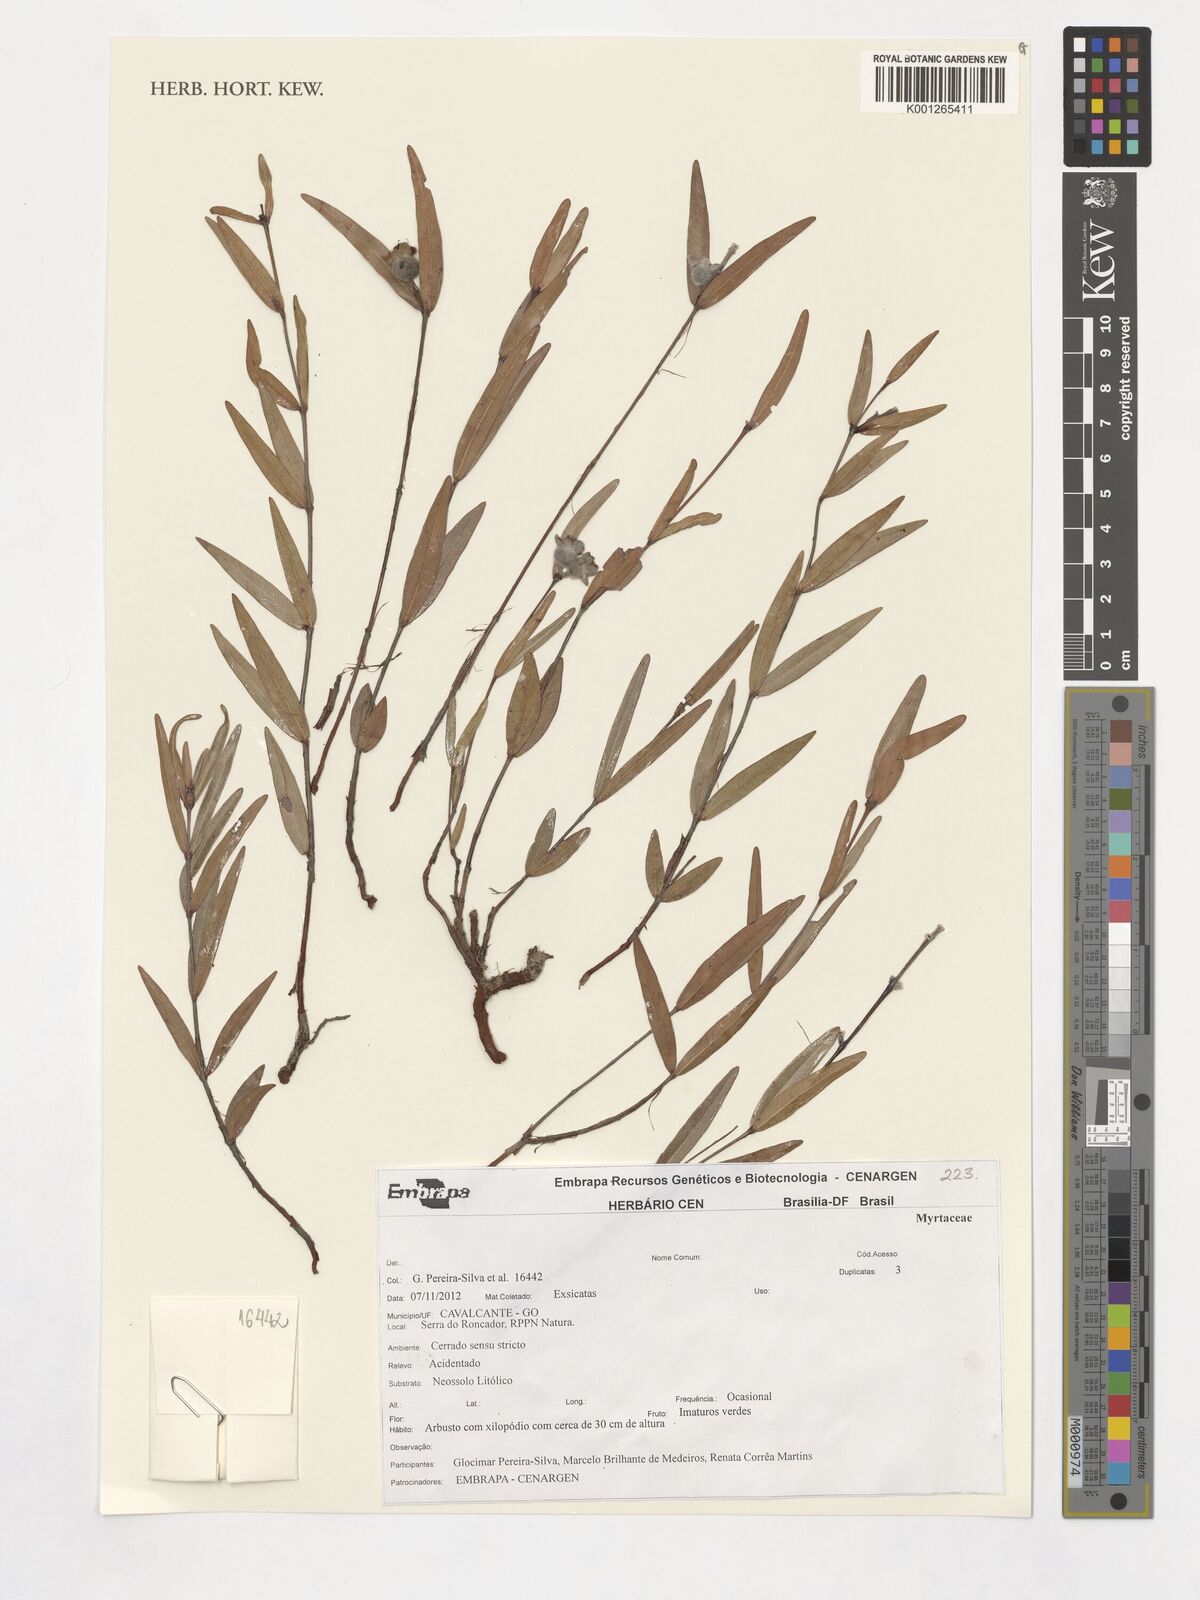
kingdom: Plantae
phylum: Tracheophyta
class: Magnoliopsida
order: Myrtales
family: Myrtaceae
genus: Myrcia
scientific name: Myrcia goyazensis
